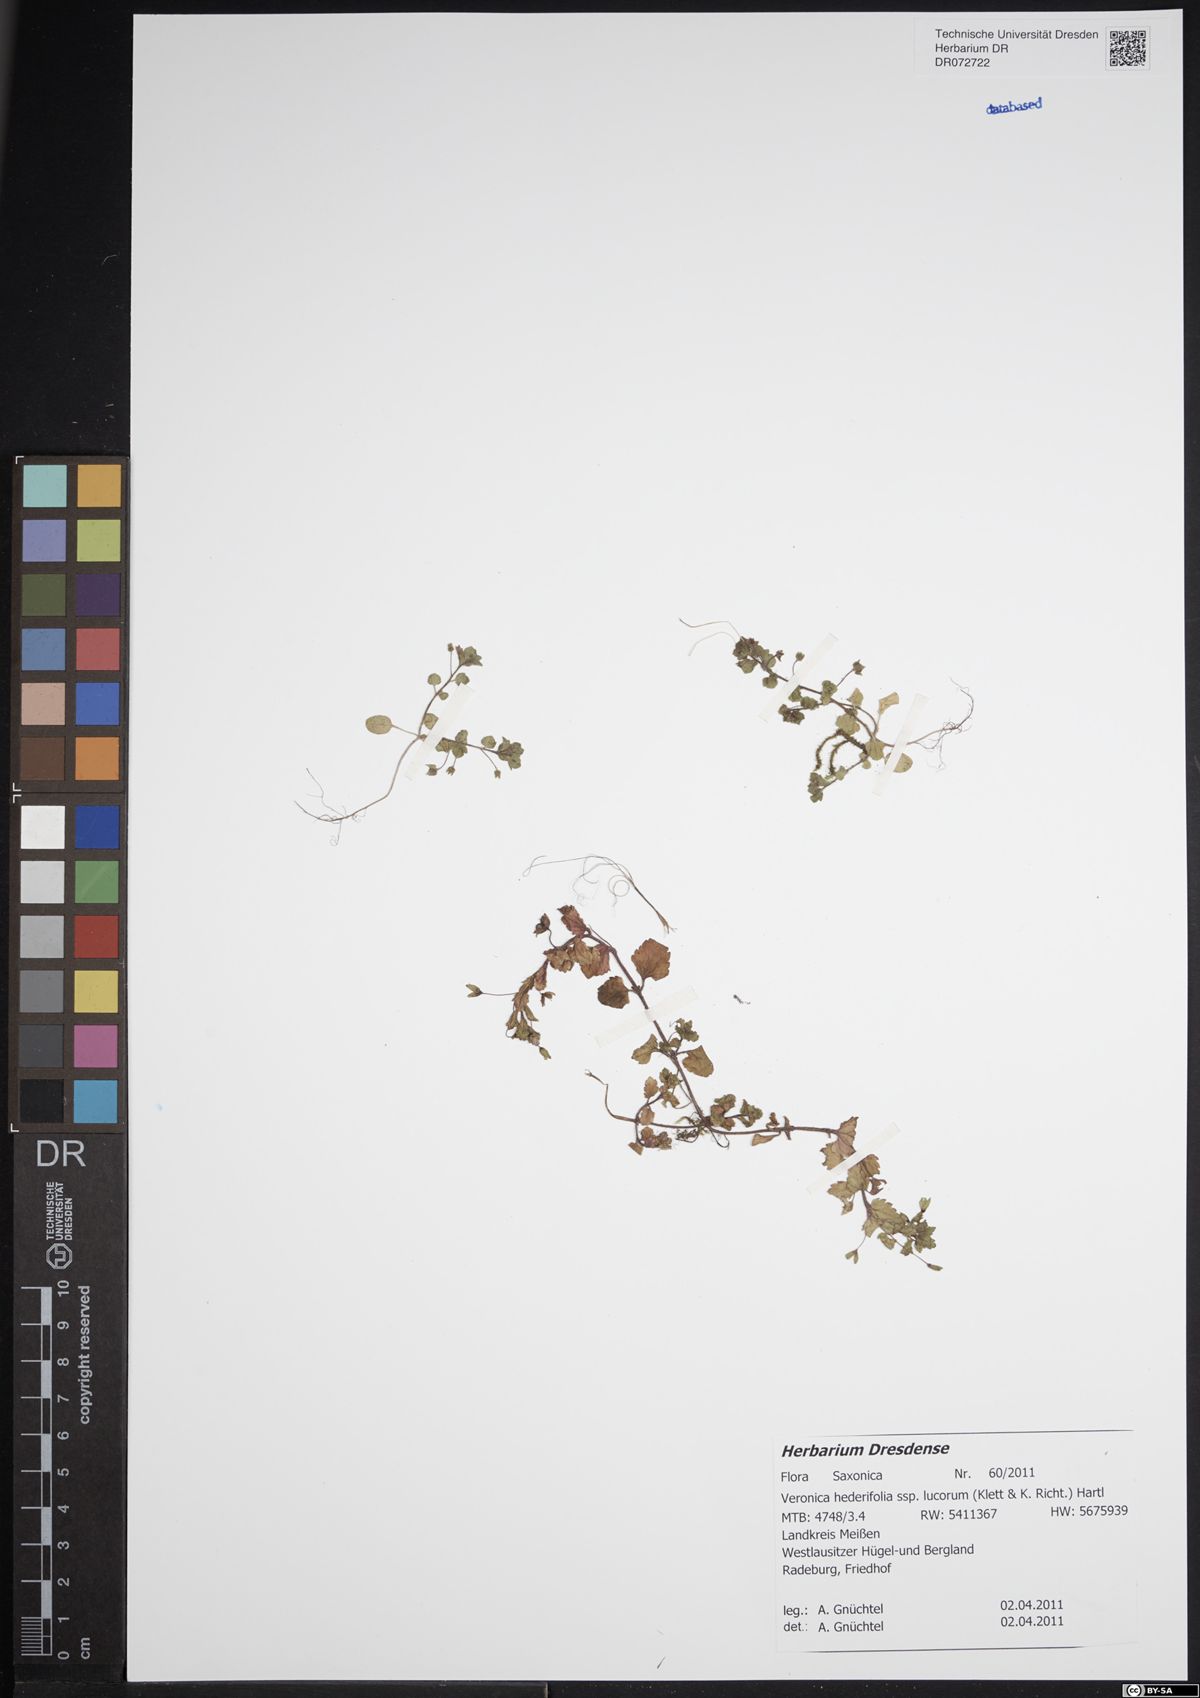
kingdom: Plantae
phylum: Tracheophyta
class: Magnoliopsida
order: Lamiales
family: Plantaginaceae
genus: Veronica
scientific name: Veronica hederifolia
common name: Ivy-leaved speedwell
